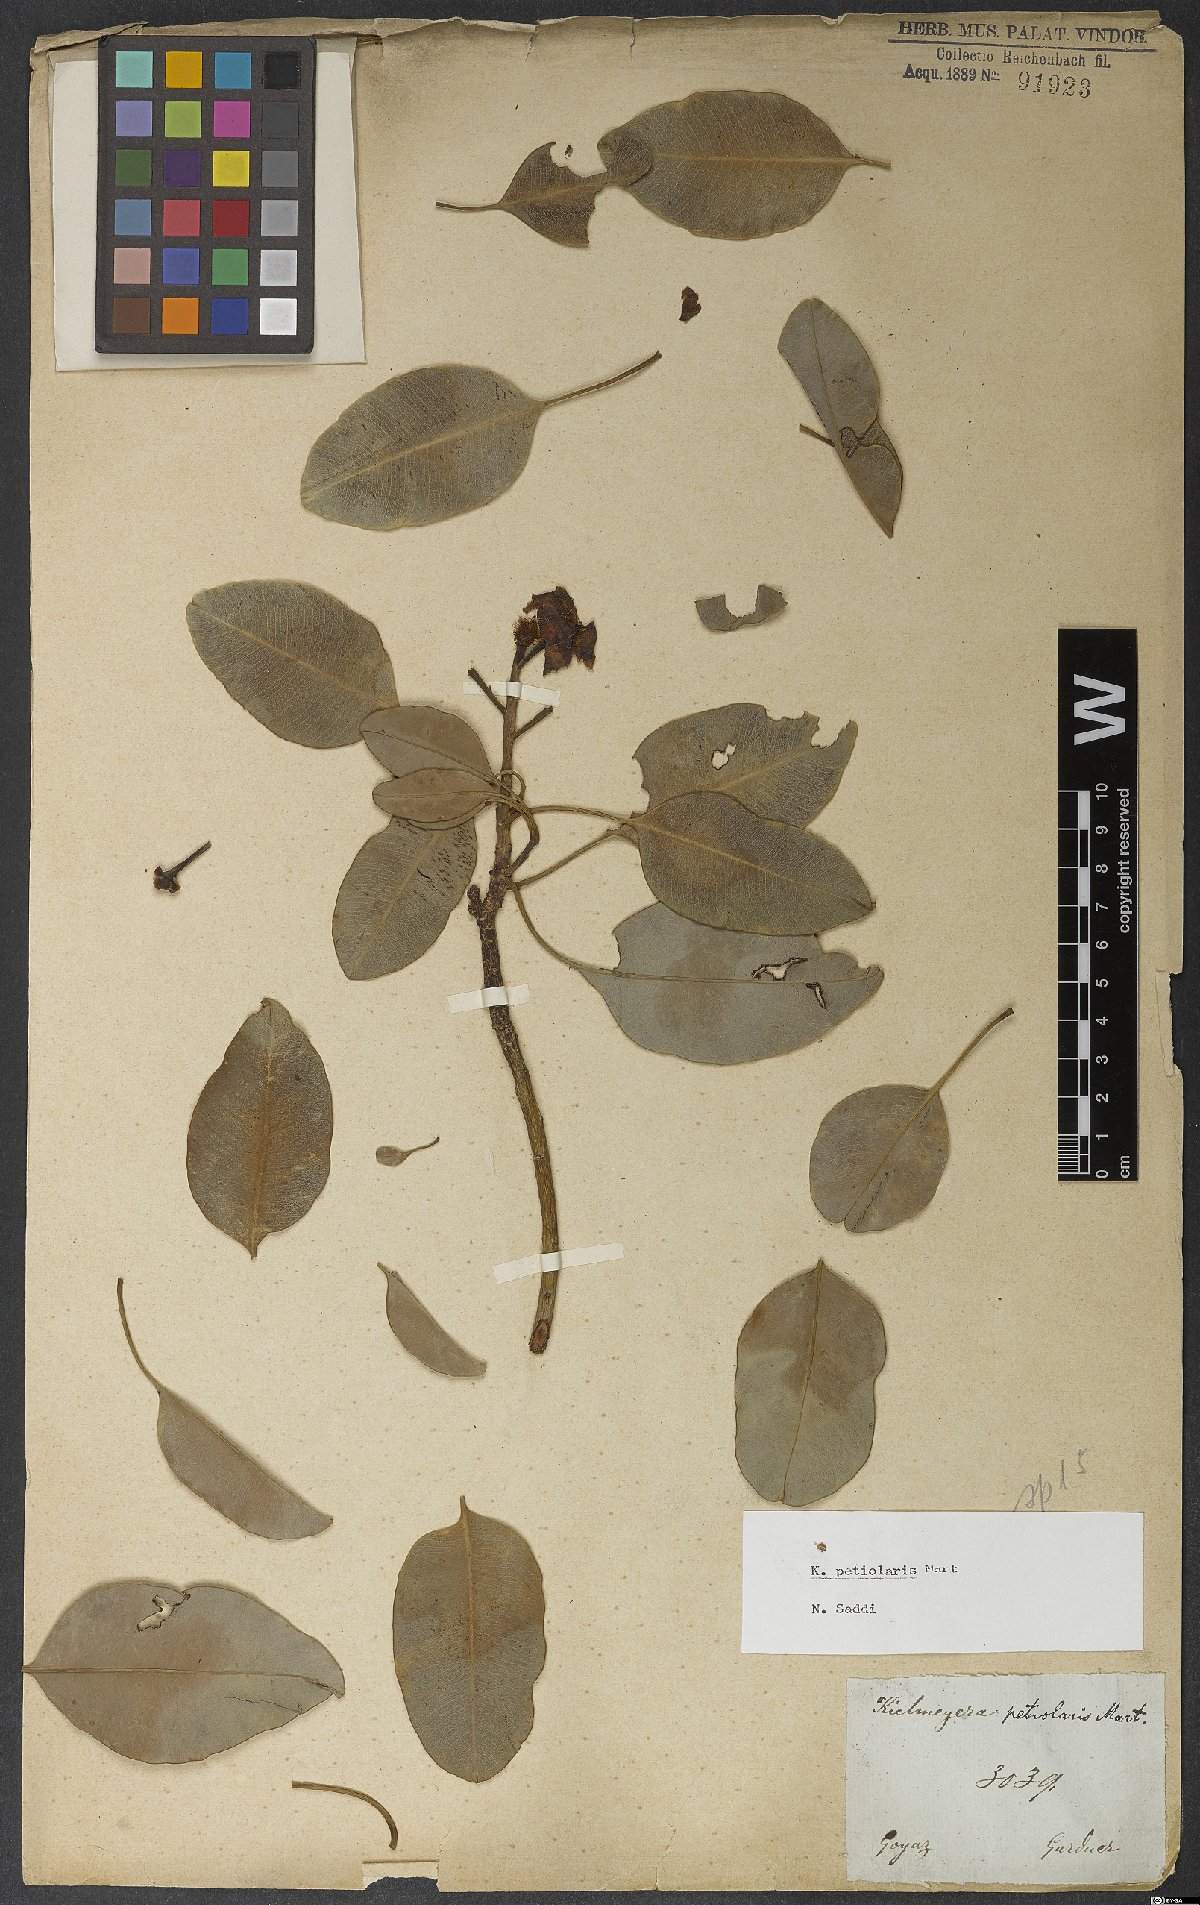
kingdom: Plantae
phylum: Tracheophyta
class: Magnoliopsida
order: Malpighiales
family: Calophyllaceae
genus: Kielmeyera
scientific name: Kielmeyera petiolaris
